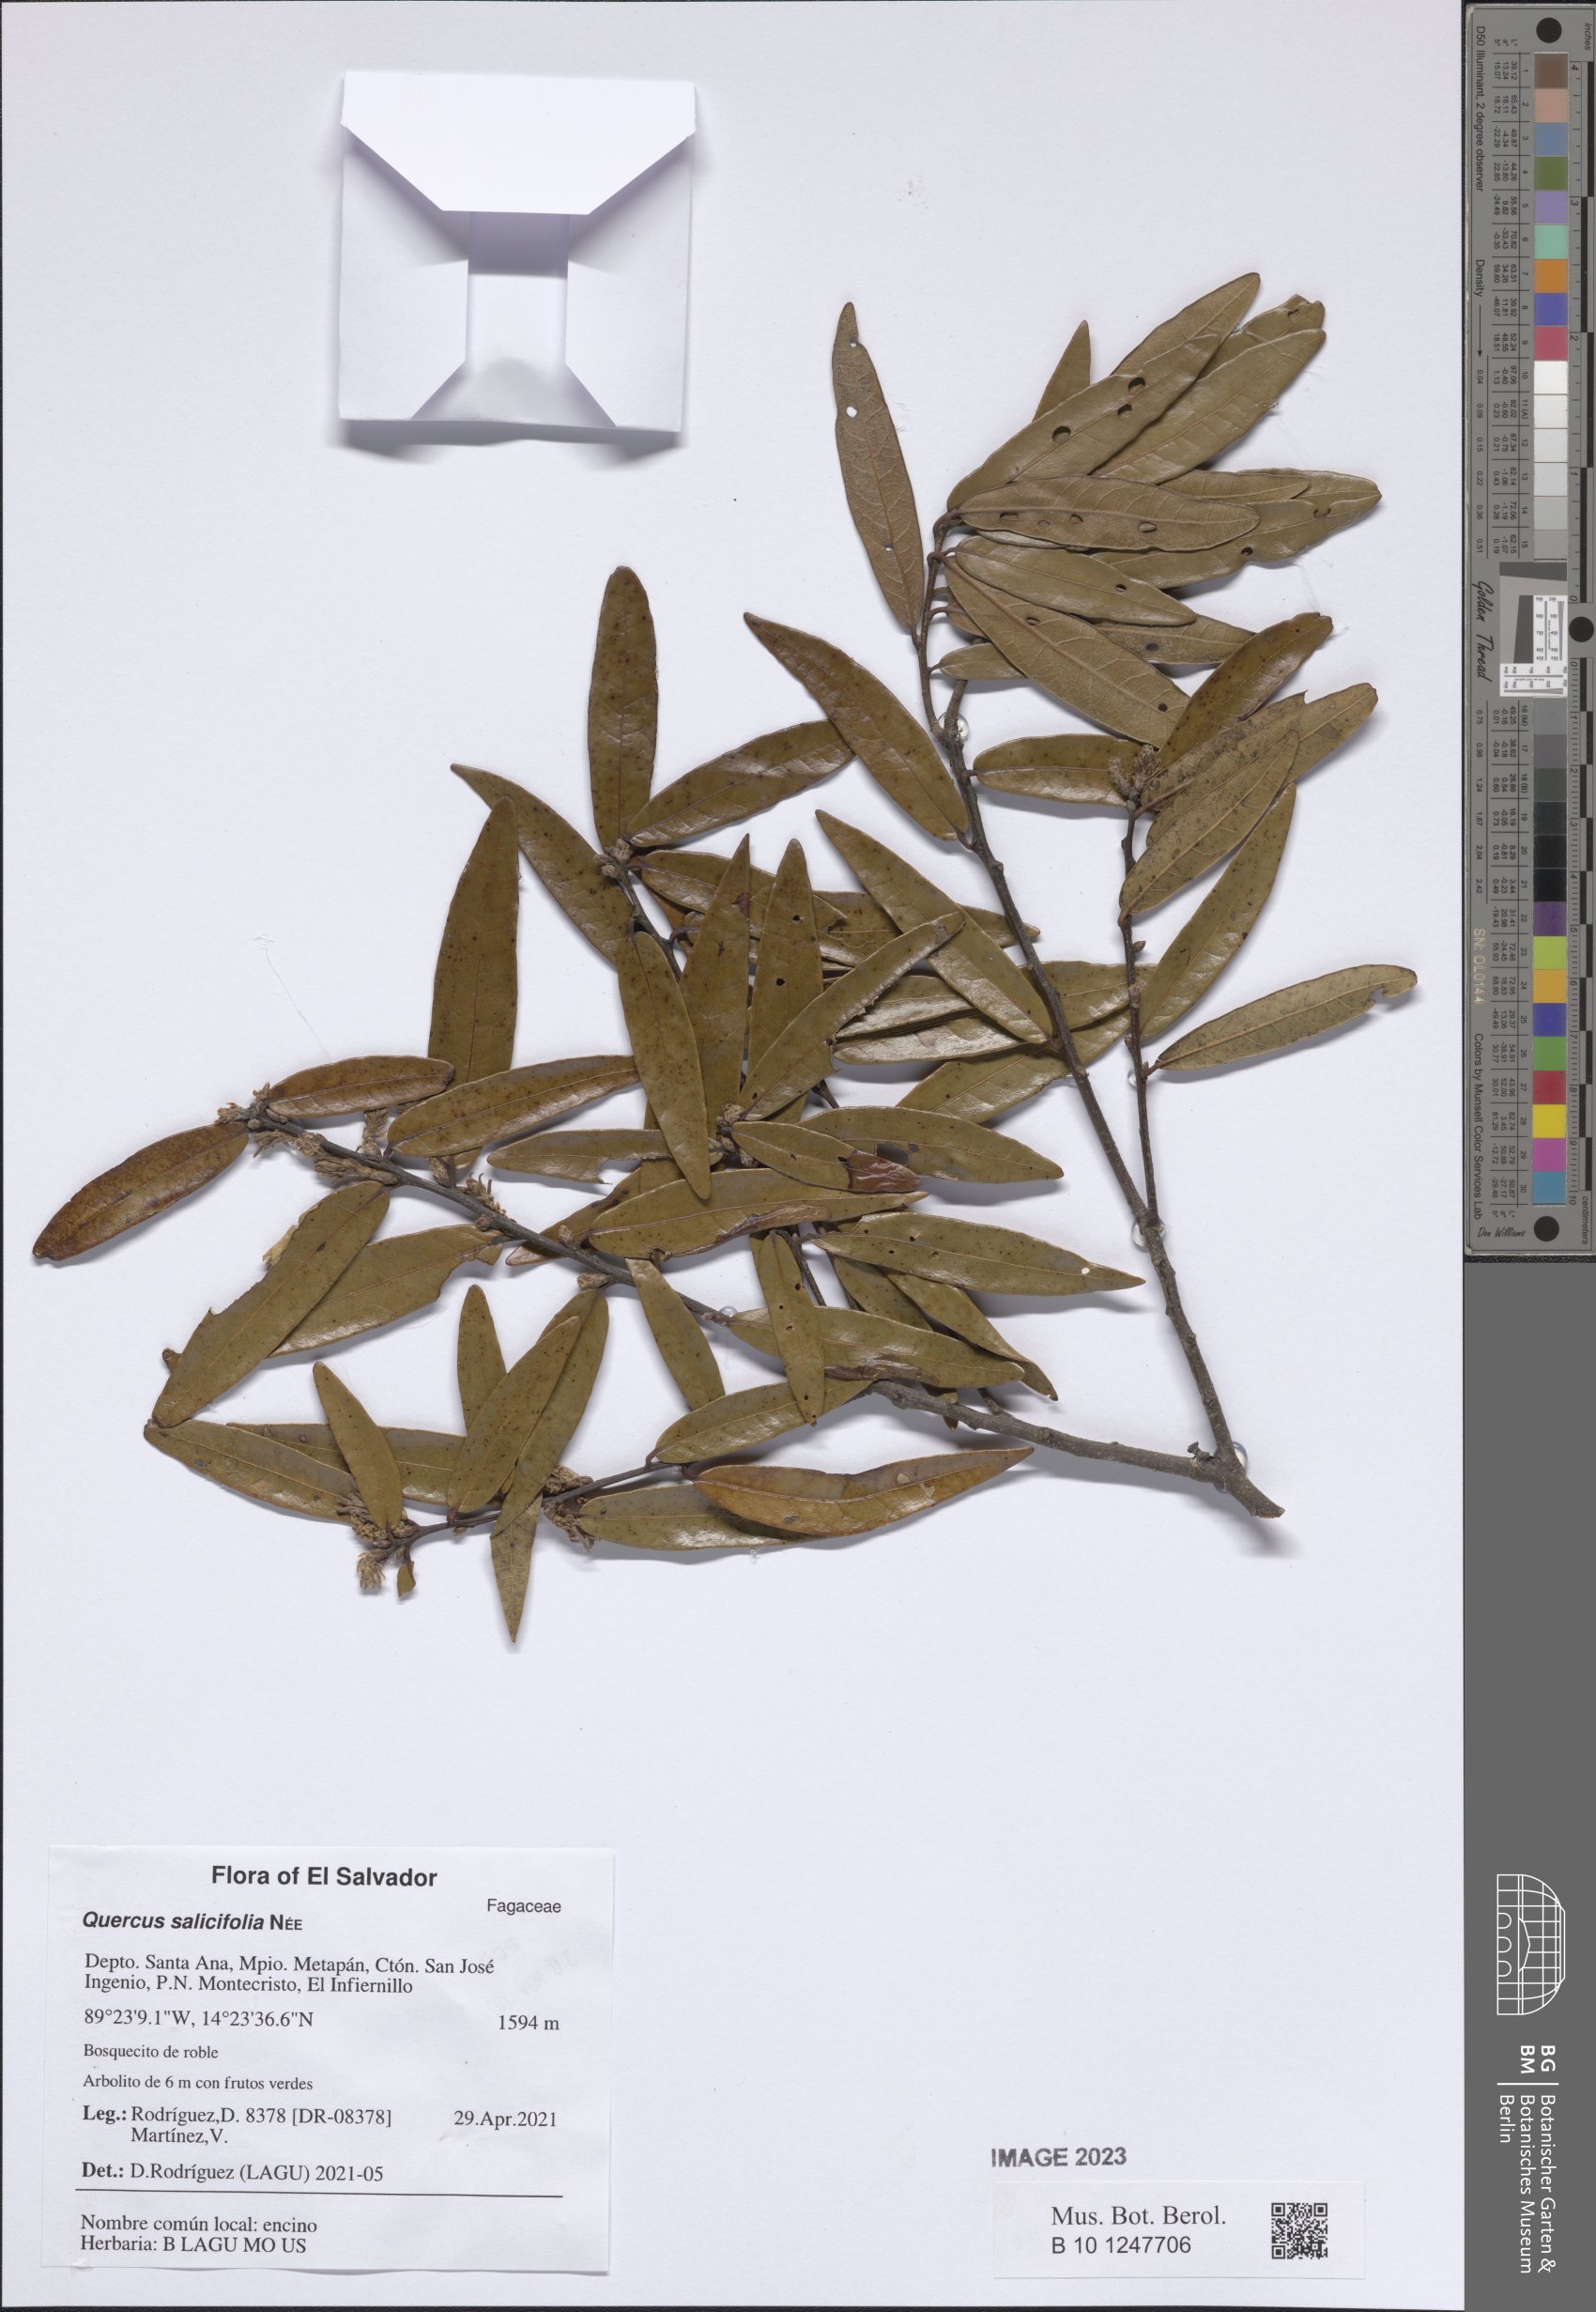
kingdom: Plantae
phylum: Tracheophyta
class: Magnoliopsida
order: Fagales
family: Fagaceae
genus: Quercus
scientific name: Quercus salicifolia
